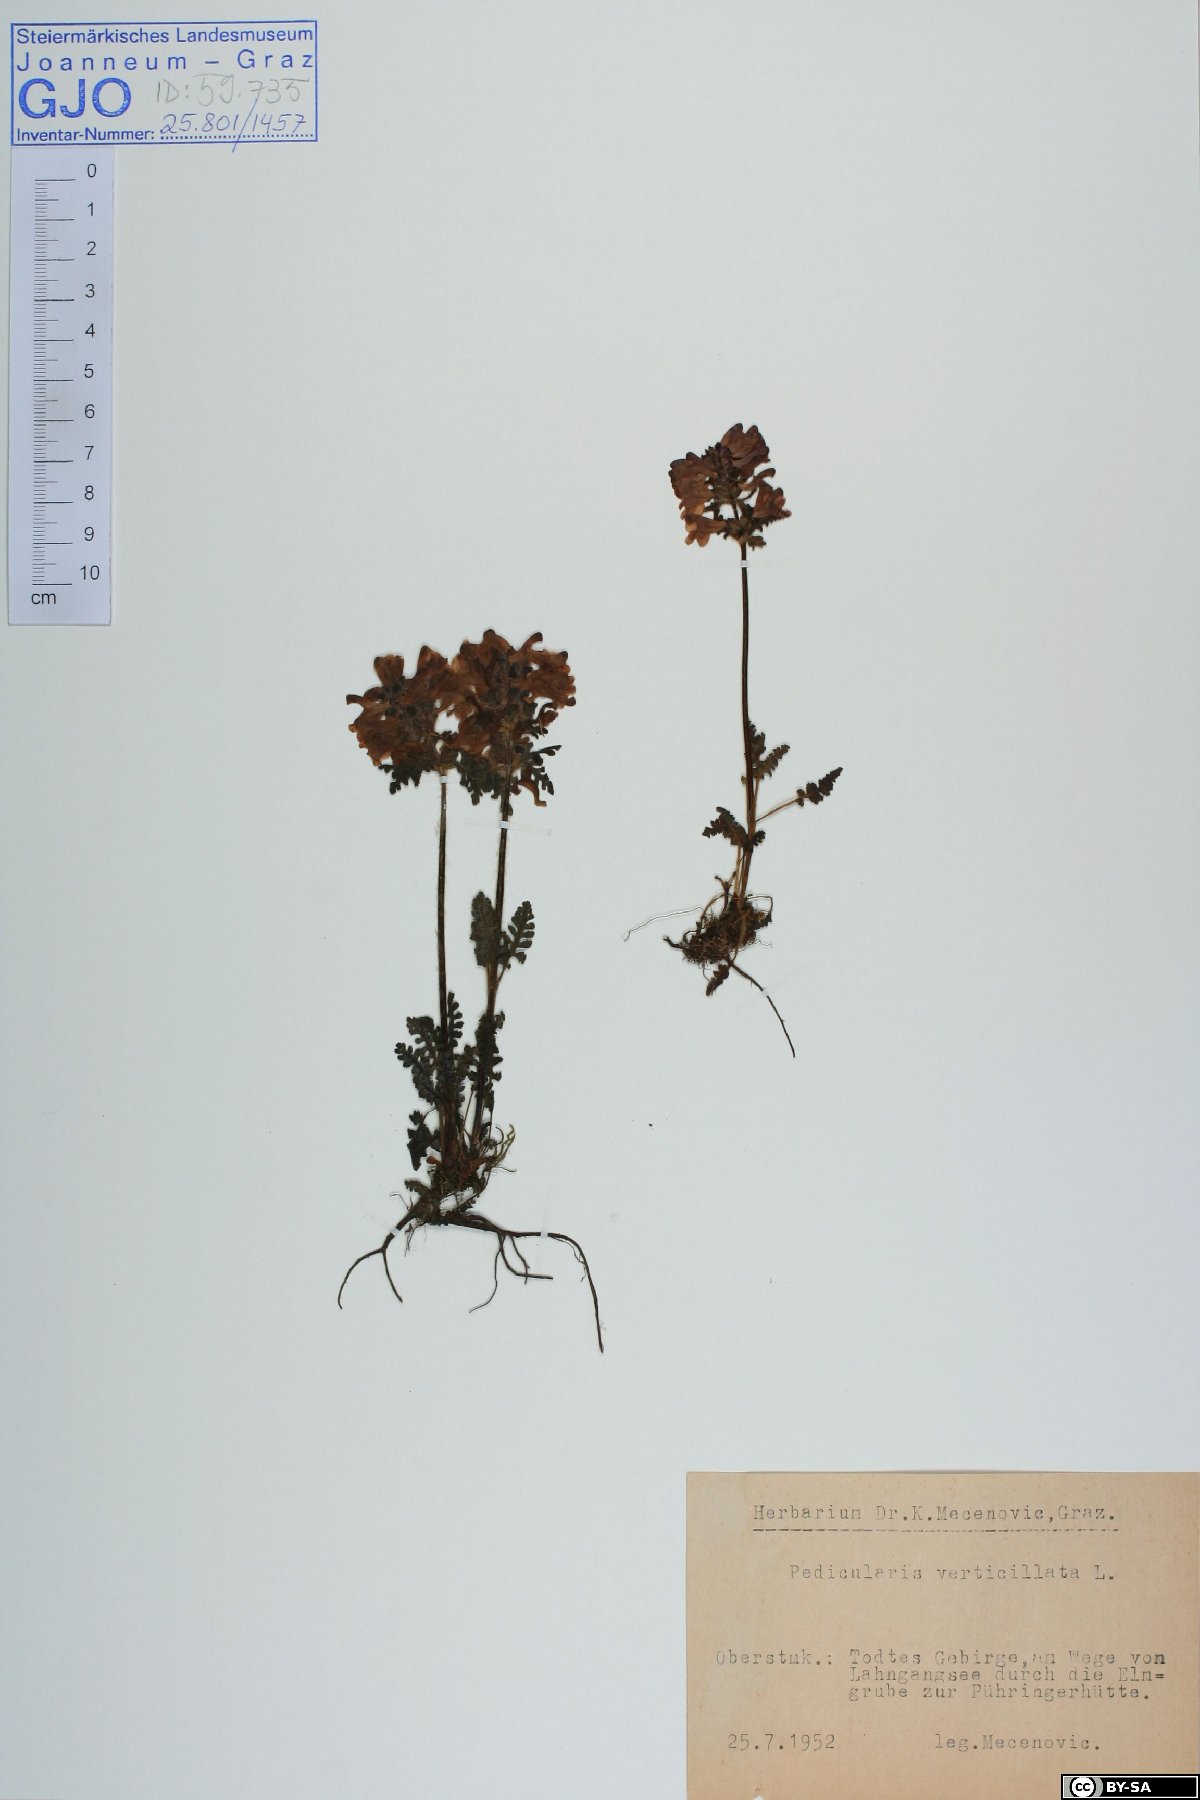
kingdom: Plantae
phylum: Tracheophyta
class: Magnoliopsida
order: Lamiales
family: Orobanchaceae
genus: Pedicularis
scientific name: Pedicularis verticillata
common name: Whorled lousewort
